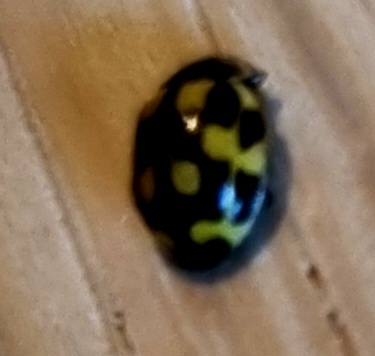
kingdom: Animalia
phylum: Arthropoda
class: Insecta
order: Coleoptera
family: Coccinellidae
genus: Propylaea
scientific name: Propylaea quatuordecimpunctata
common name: Skakbræt
